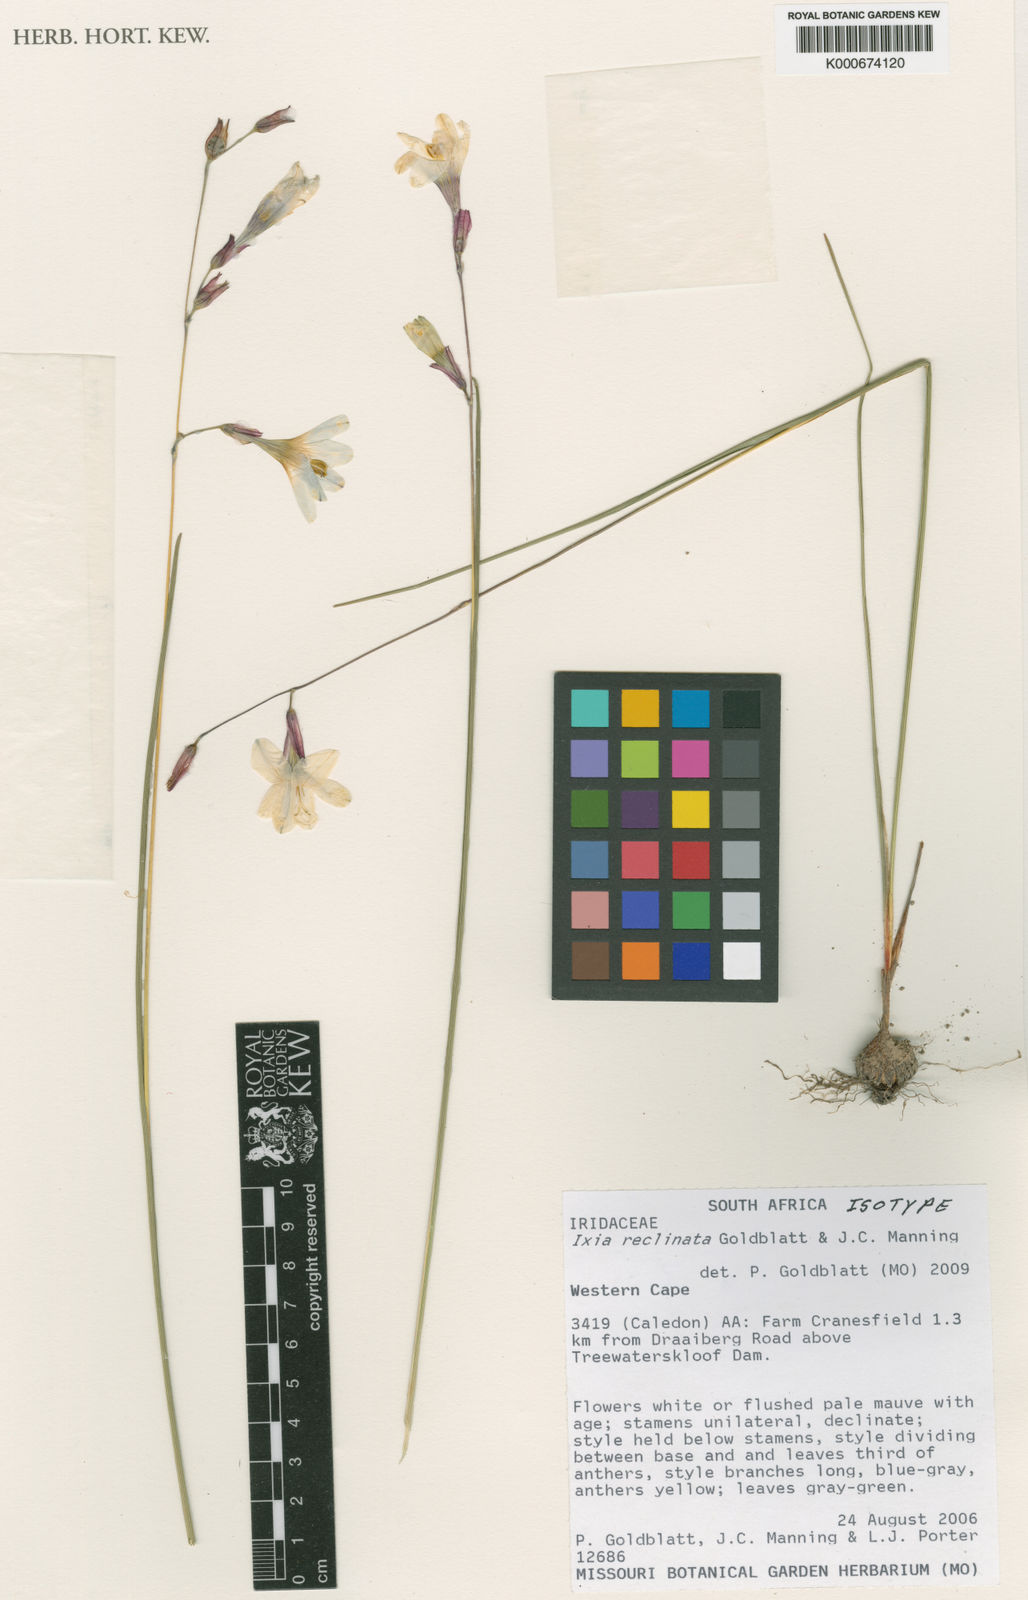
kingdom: Plantae
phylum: Tracheophyta
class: Liliopsida
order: Asparagales
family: Iridaceae
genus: Ixia
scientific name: Ixia reclinata
